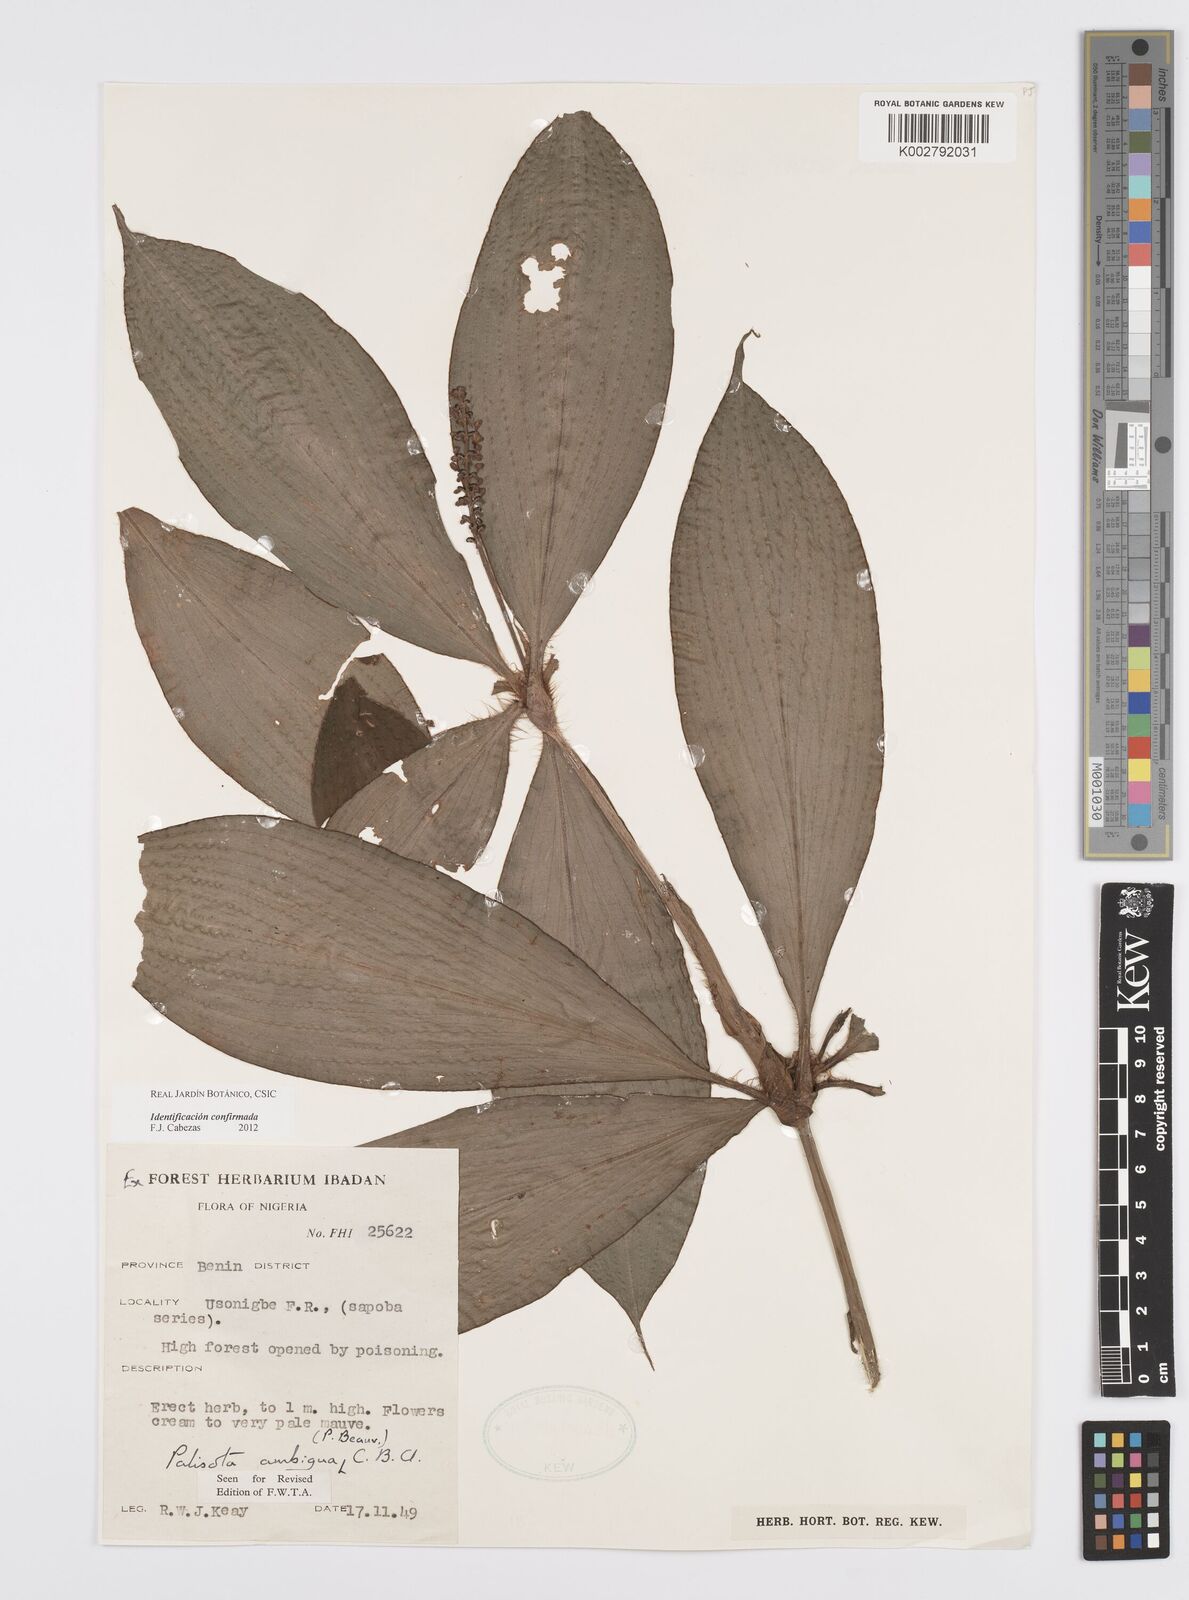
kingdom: Plantae
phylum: Tracheophyta
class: Liliopsida
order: Commelinales
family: Commelinaceae
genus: Palisota
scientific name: Palisota ambigua
